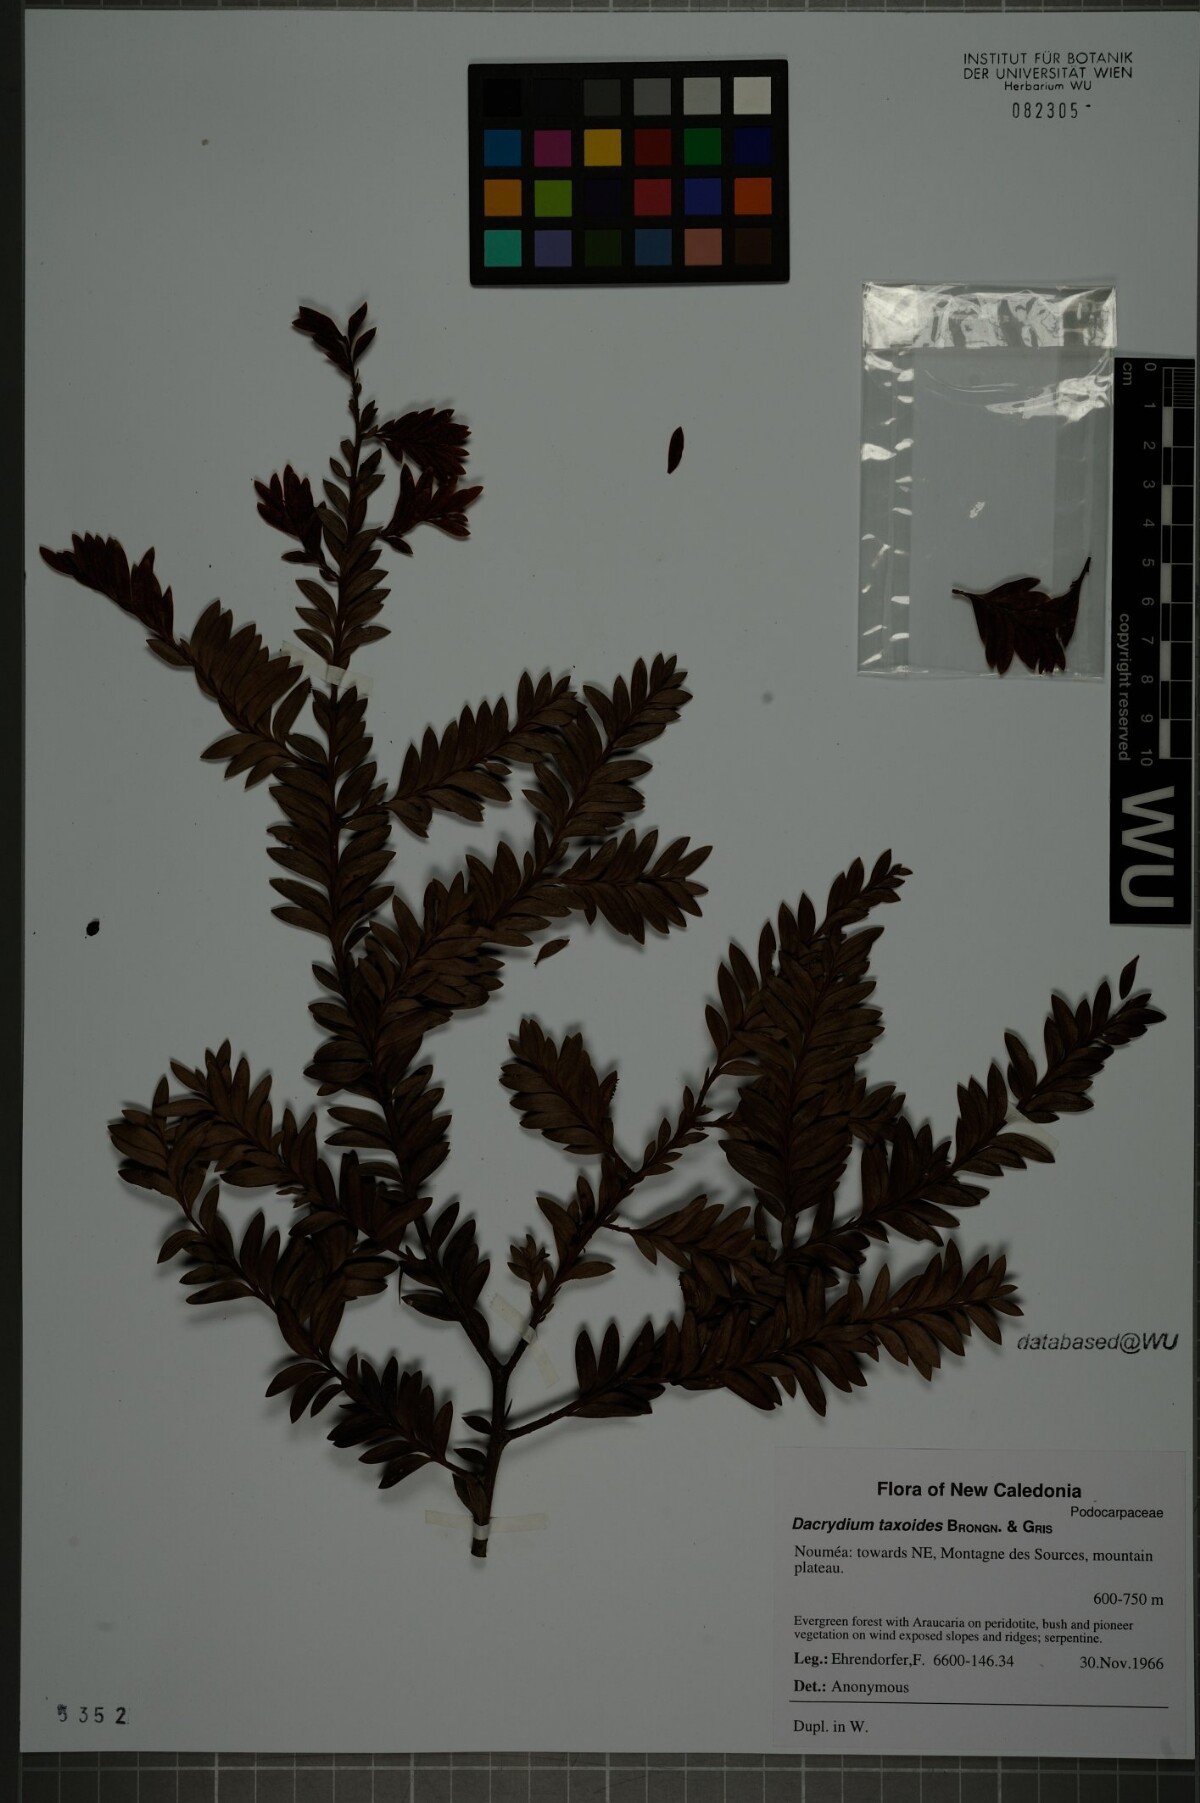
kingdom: Plantae
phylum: Tracheophyta
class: Pinopsida
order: Pinales
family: Podocarpaceae
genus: Falcatifolium
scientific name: Falcatifolium taxoides
